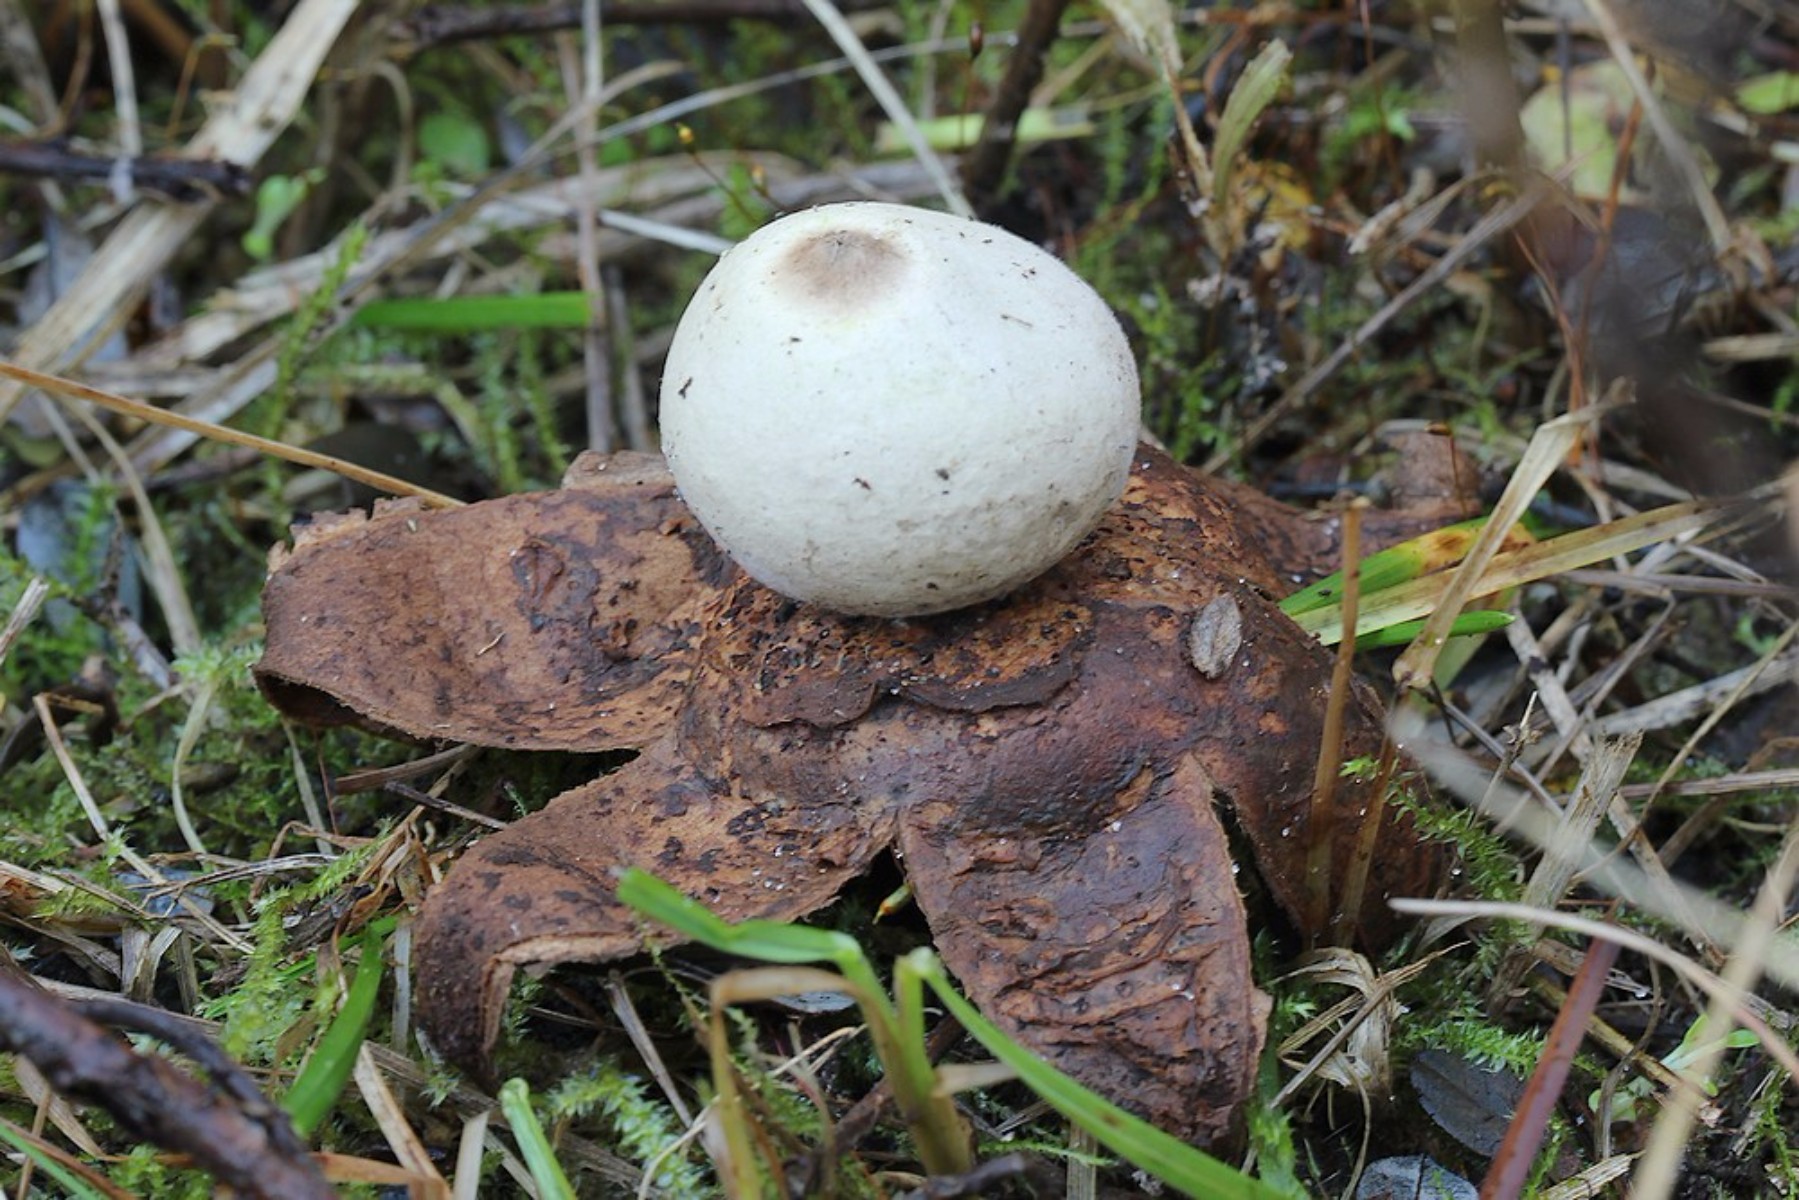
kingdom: Fungi
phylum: Basidiomycota
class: Agaricomycetes
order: Geastrales
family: Geastraceae
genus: Geastrum
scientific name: Geastrum michelianum
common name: kødet stjernebold
